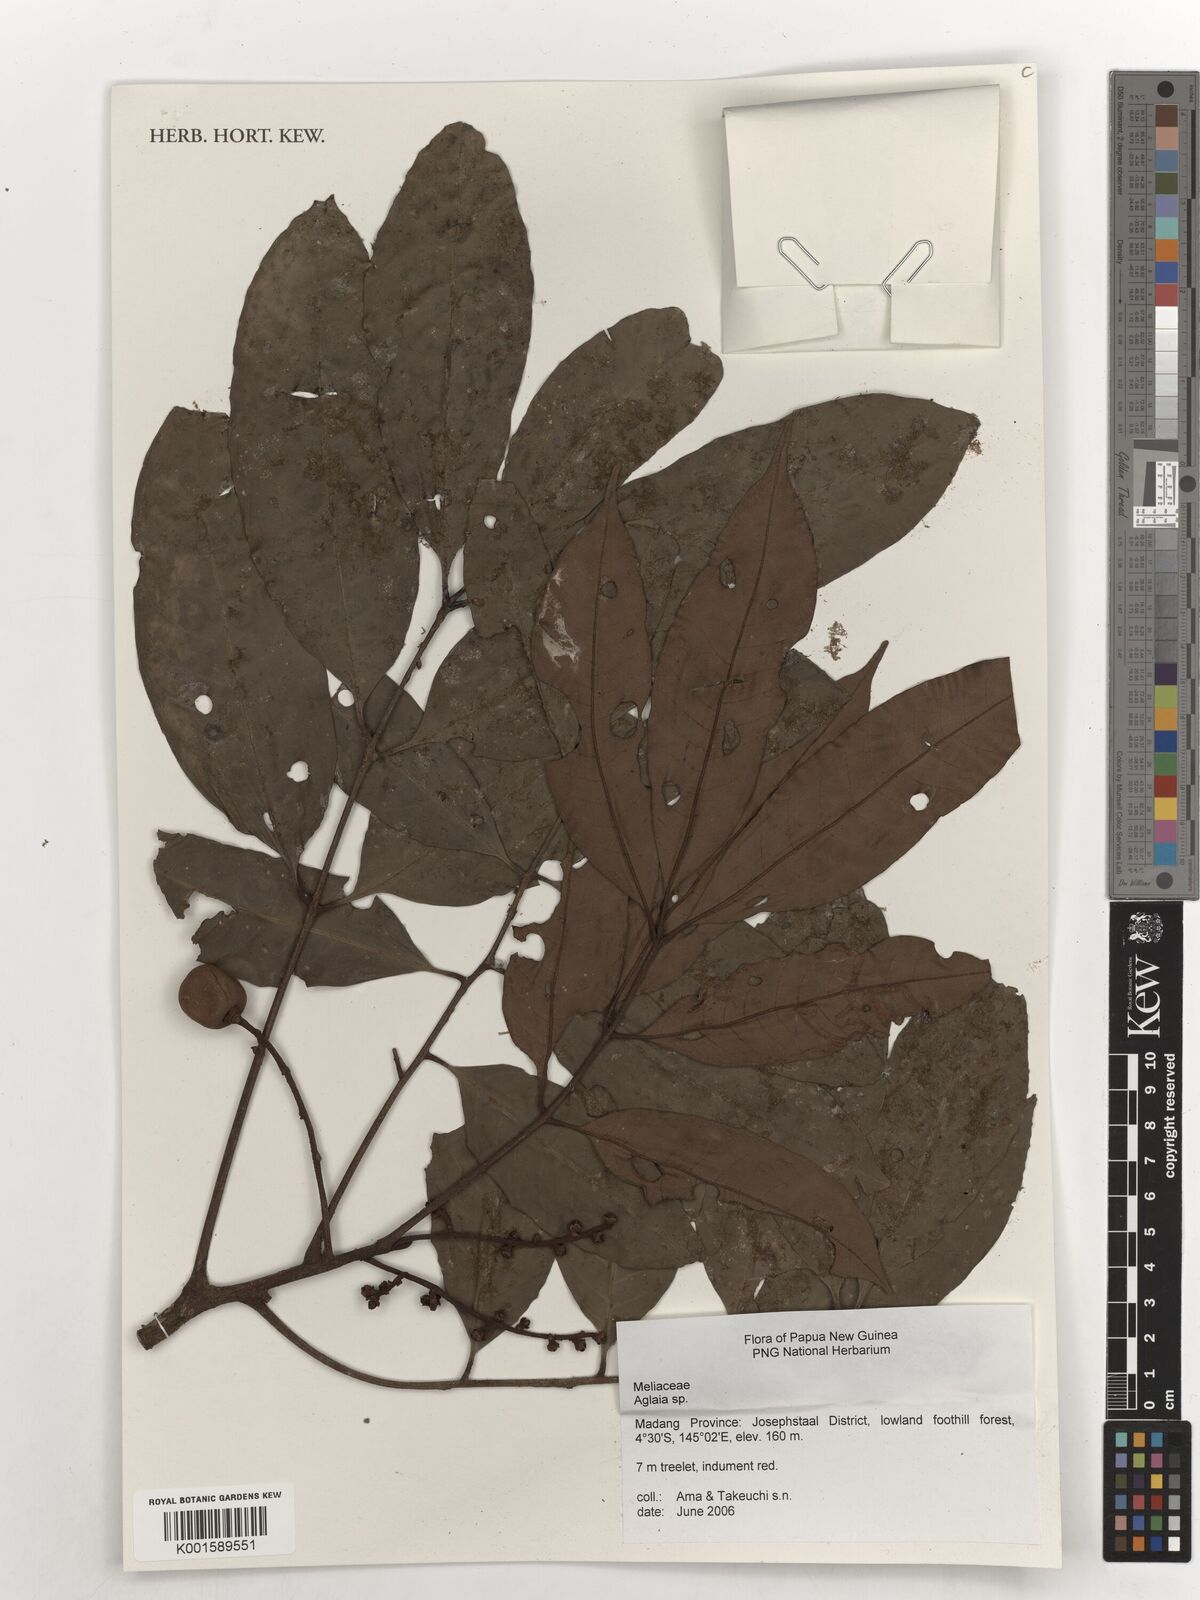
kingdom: Plantae
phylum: Tracheophyta
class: Magnoliopsida
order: Sapindales
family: Meliaceae
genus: Aglaia
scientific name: Aglaia
